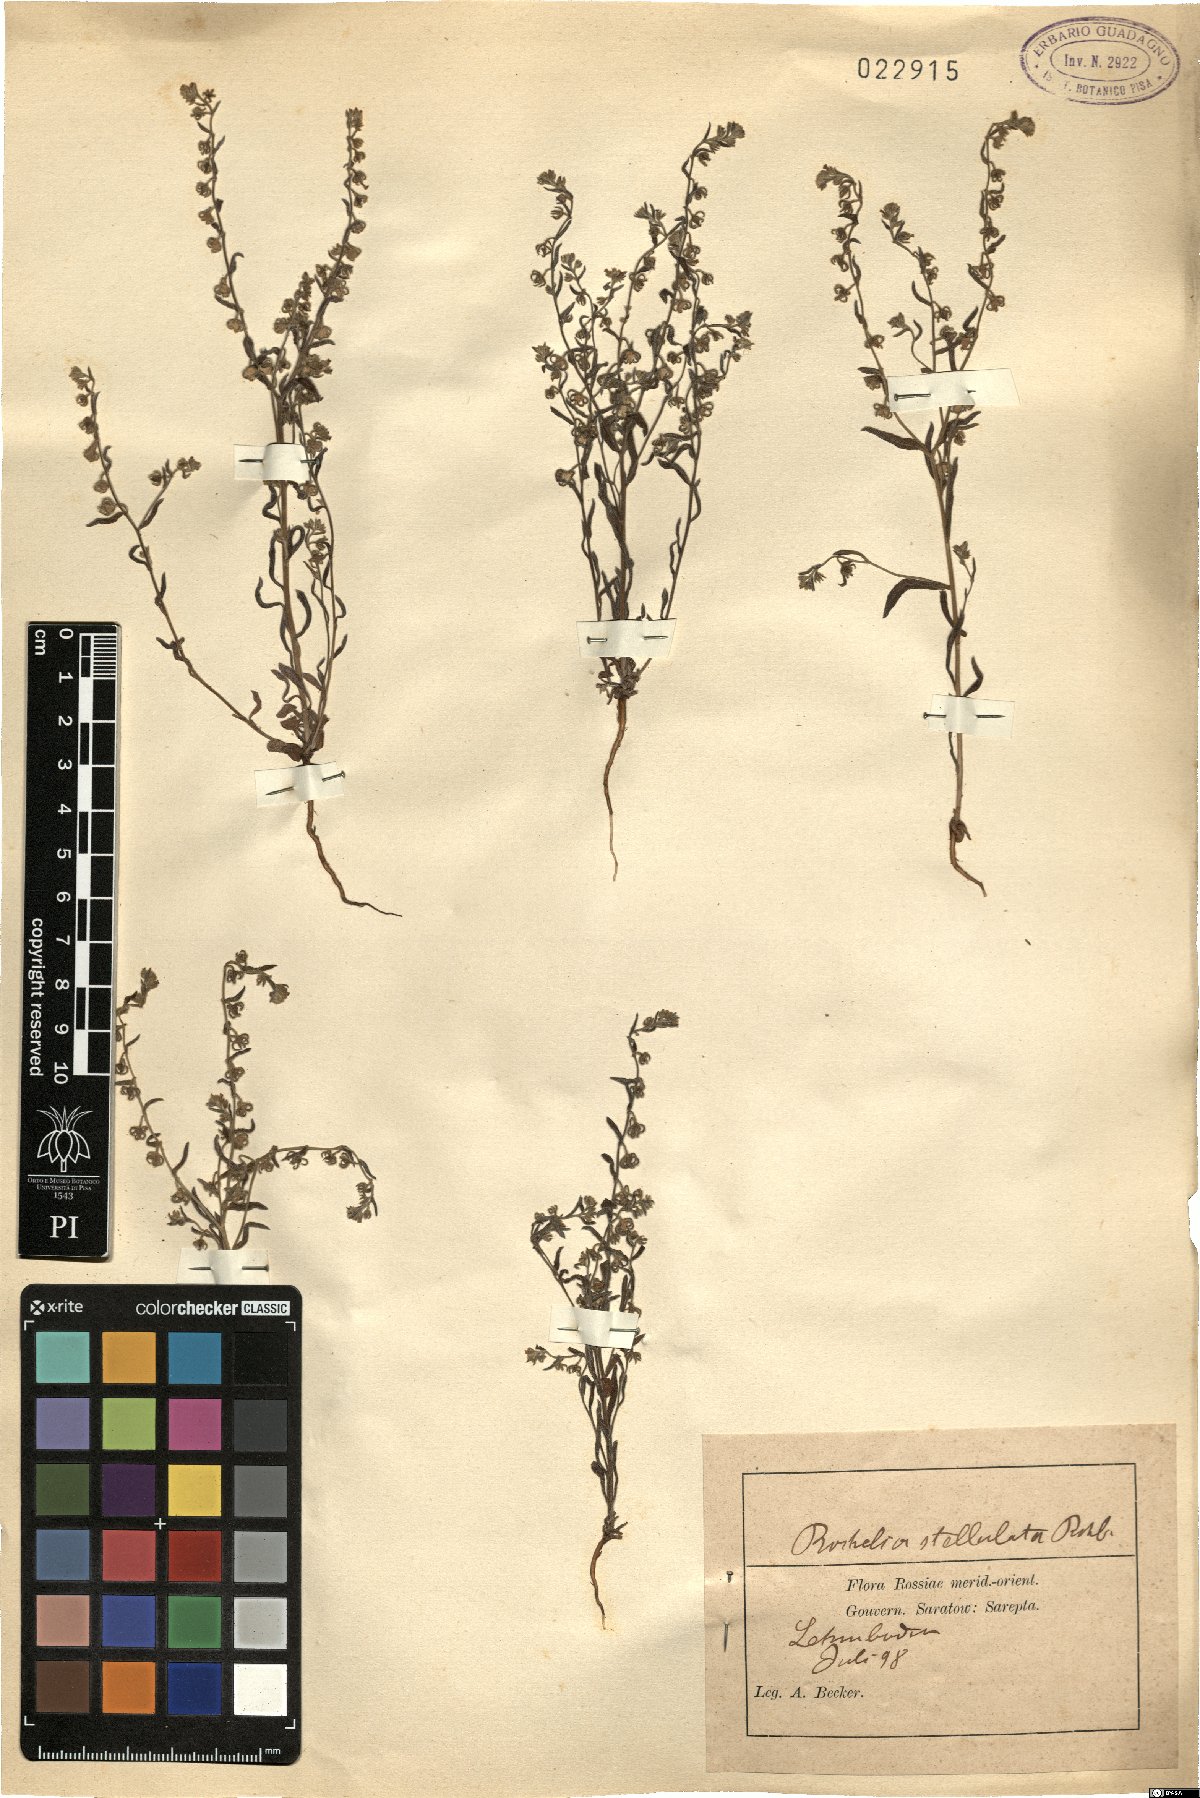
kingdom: Plantae
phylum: Tracheophyta
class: Magnoliopsida
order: Boraginales
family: Boraginaceae
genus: Rochelia
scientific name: Rochelia disperma
